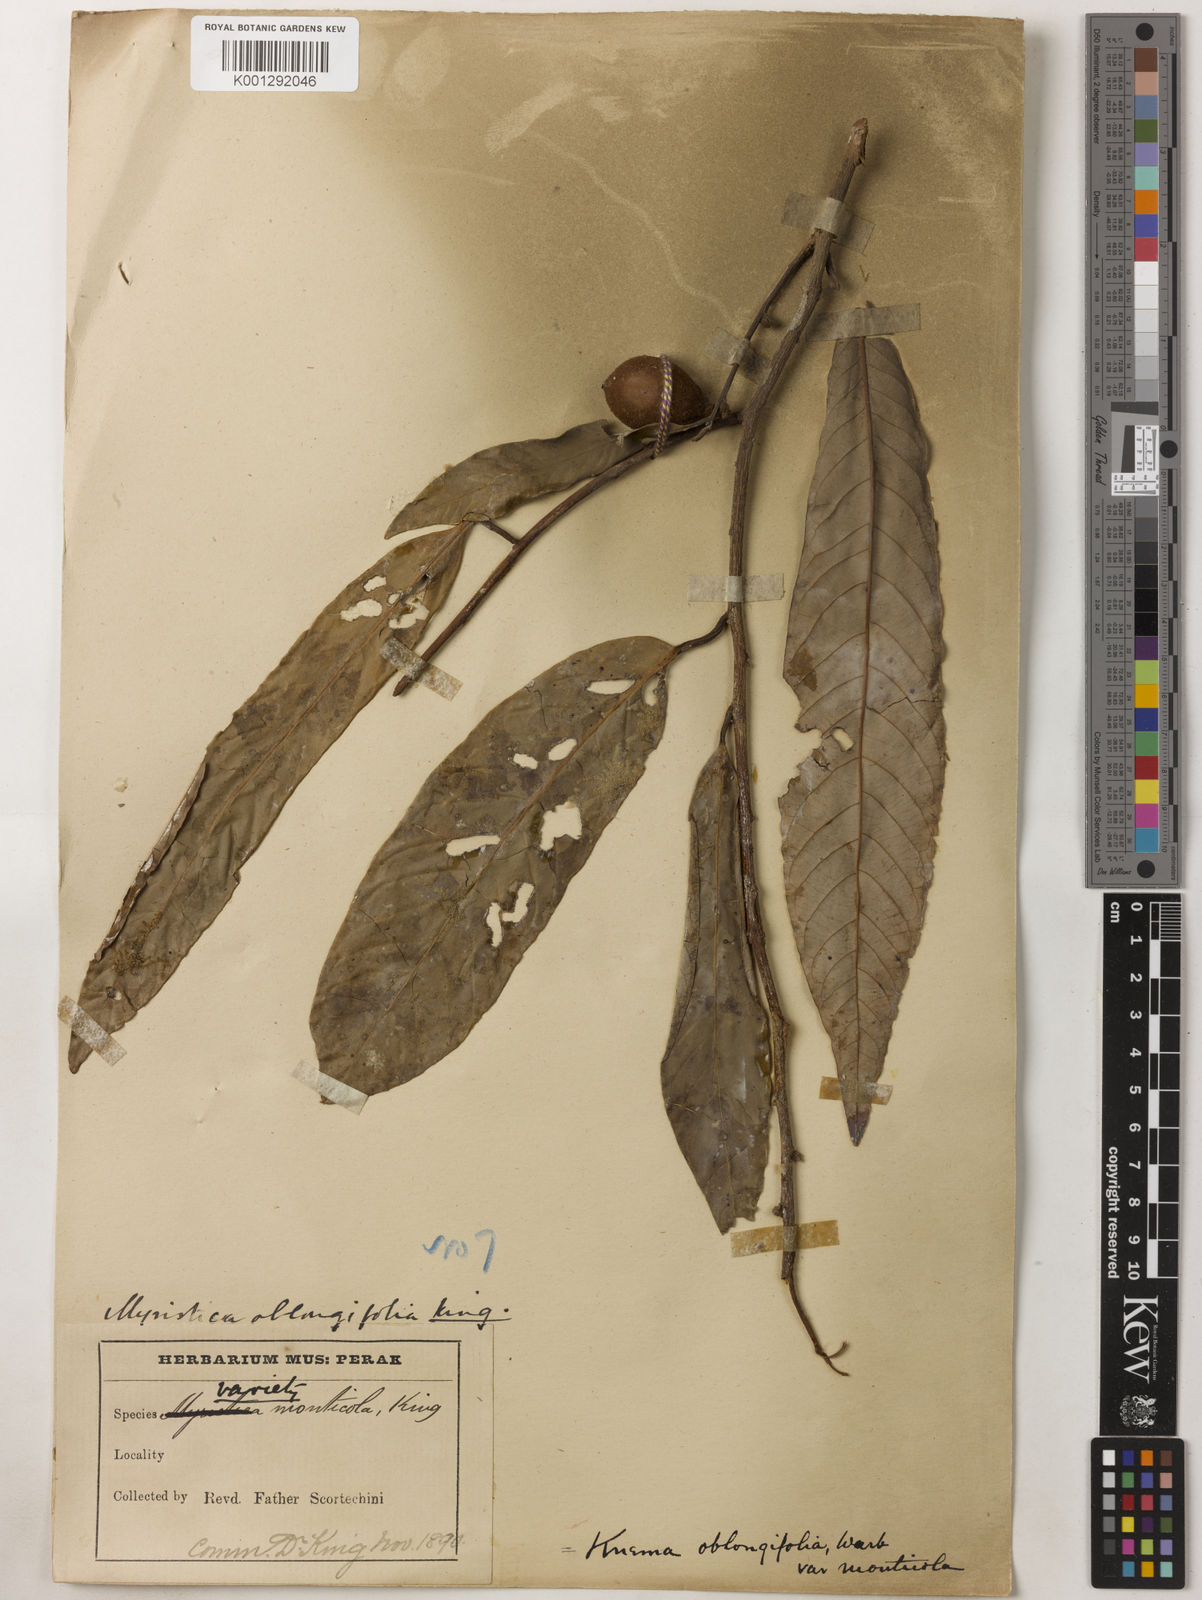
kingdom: Plantae
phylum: Tracheophyta
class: Magnoliopsida
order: Magnoliales
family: Myristicaceae
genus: Knema
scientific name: Knema
